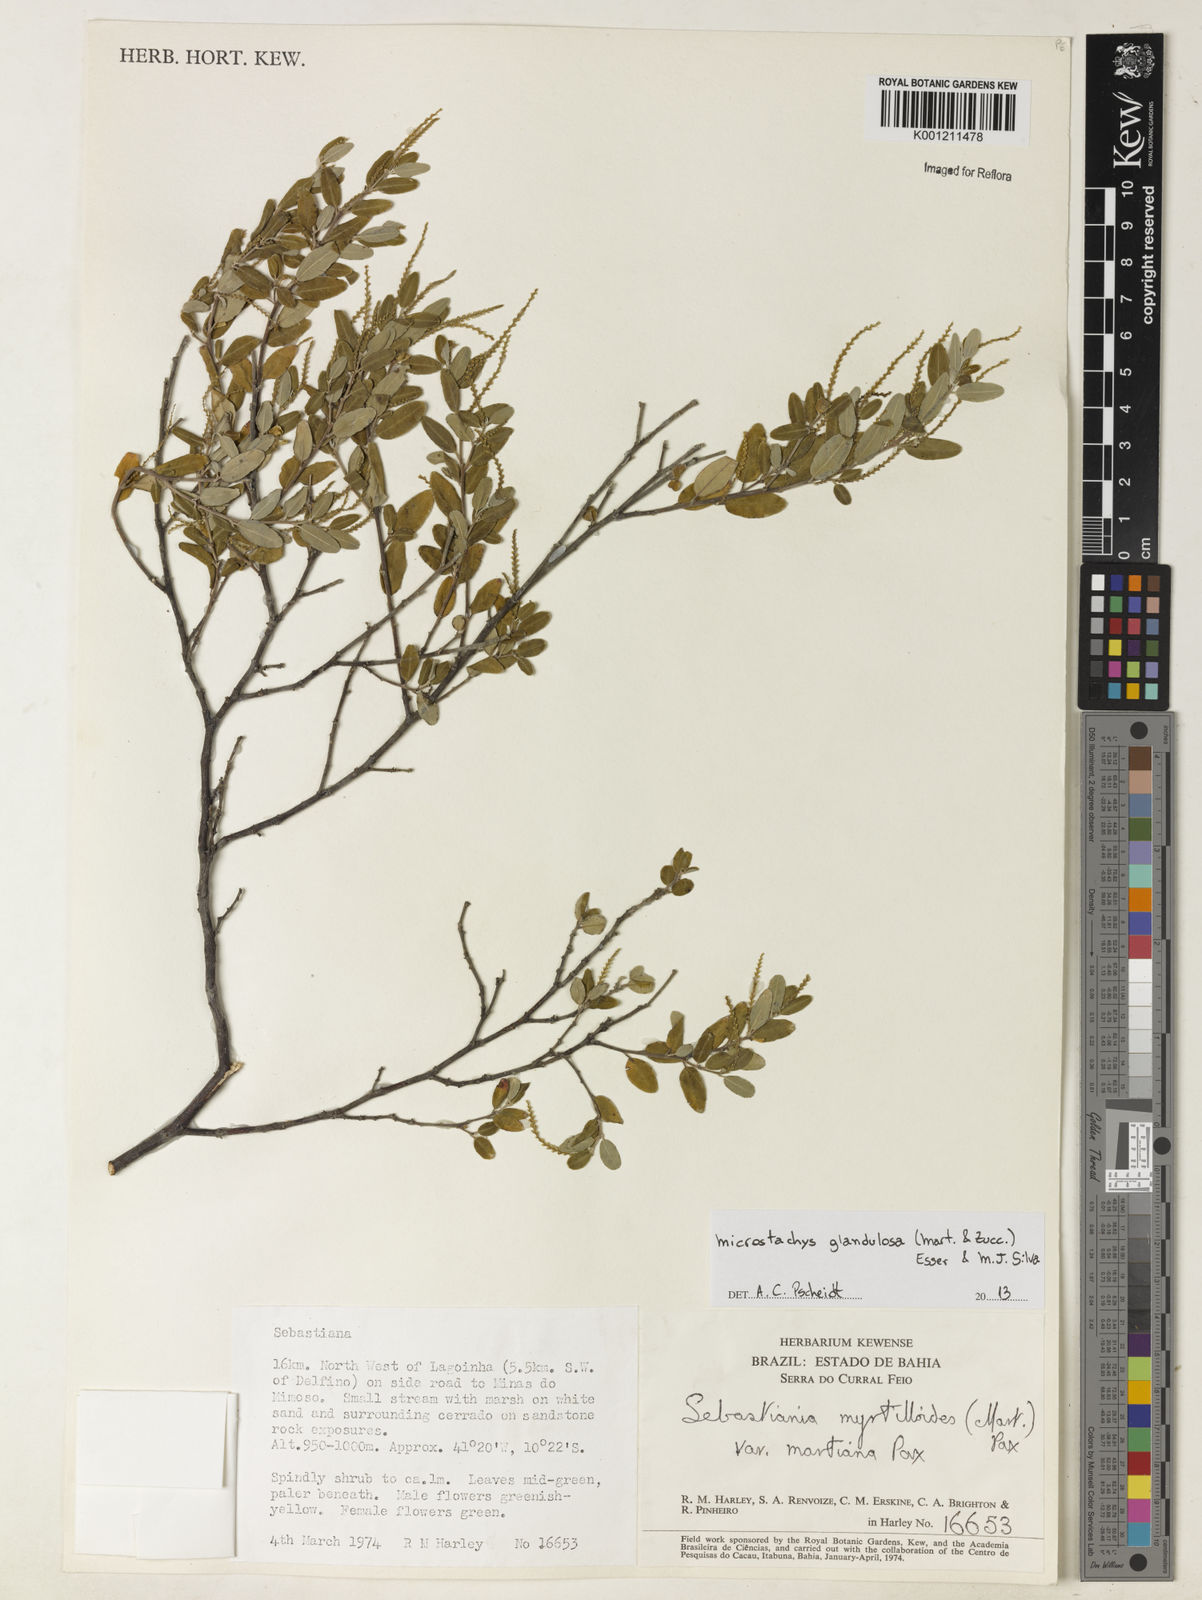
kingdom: Plantae
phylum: Tracheophyta
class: Magnoliopsida
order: Malpighiales
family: Euphorbiaceae
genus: Microstachys
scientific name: Microstachys glandulosa
